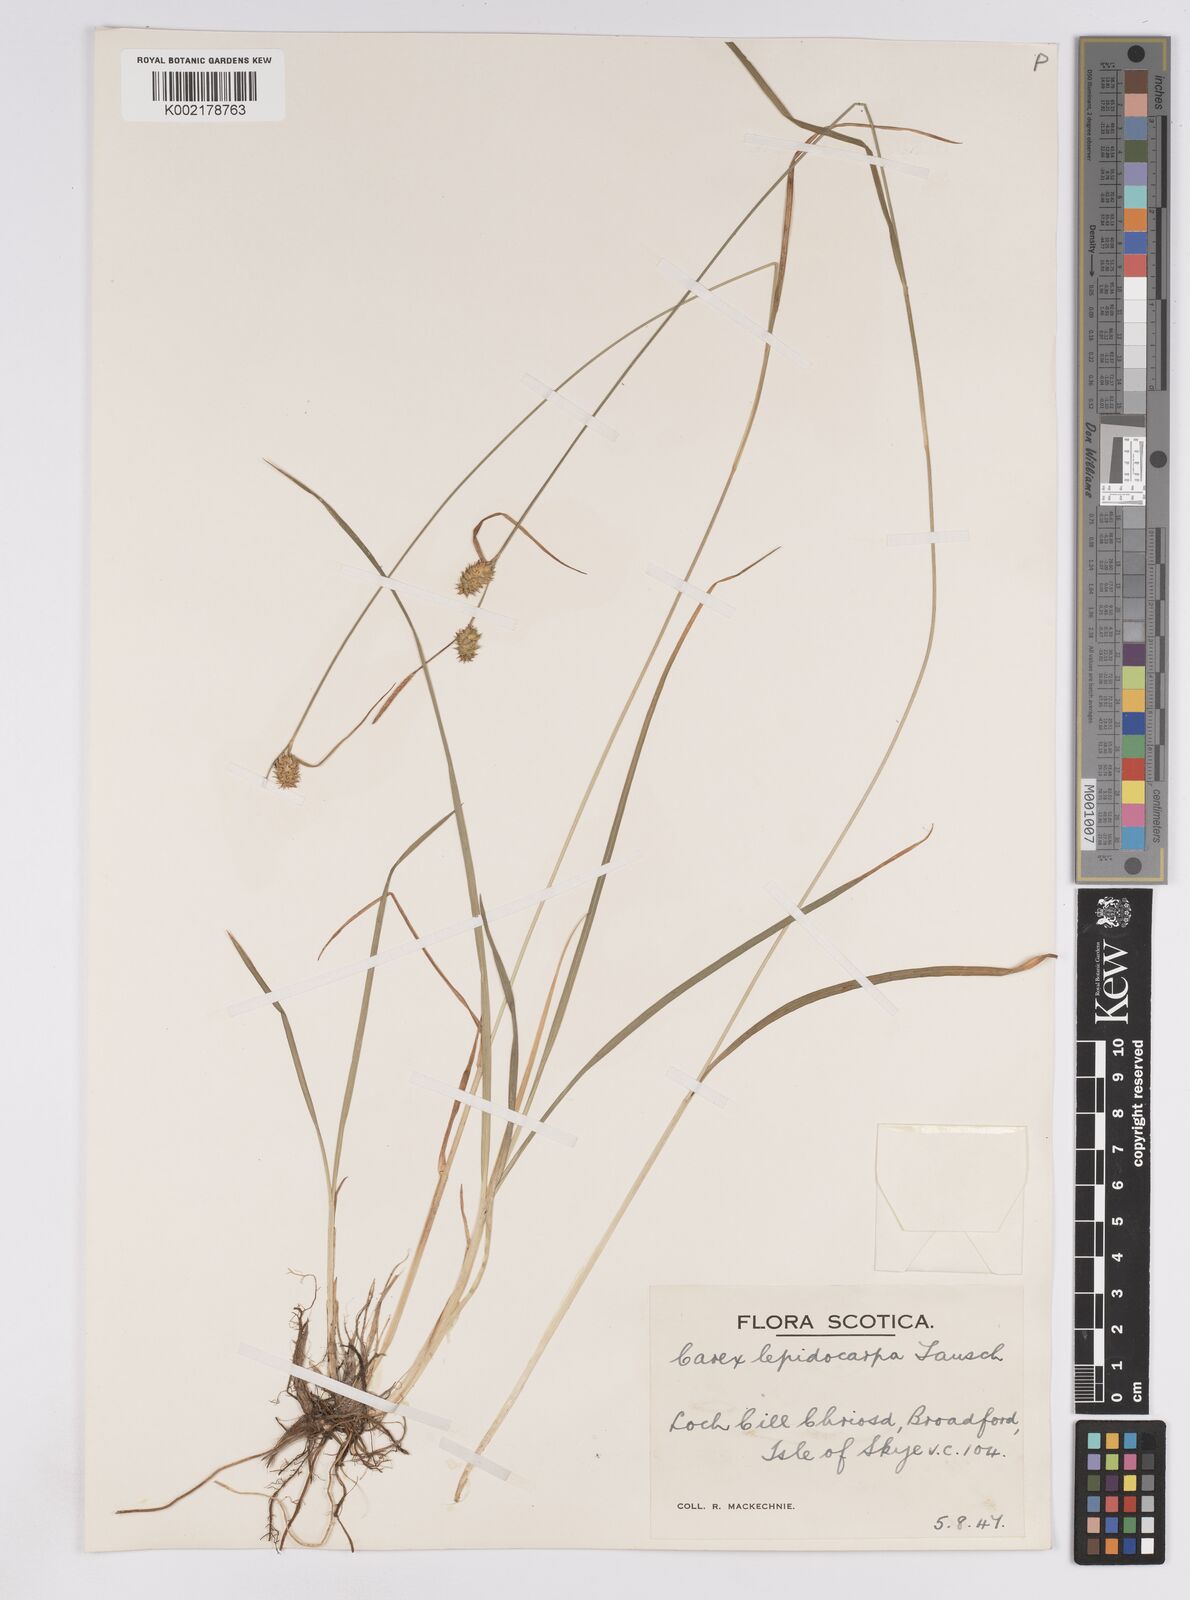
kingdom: Plantae
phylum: Tracheophyta
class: Liliopsida
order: Poales
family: Cyperaceae
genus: Carex
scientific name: Carex lepidocarpa
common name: Long-stalked yellow-sedge
